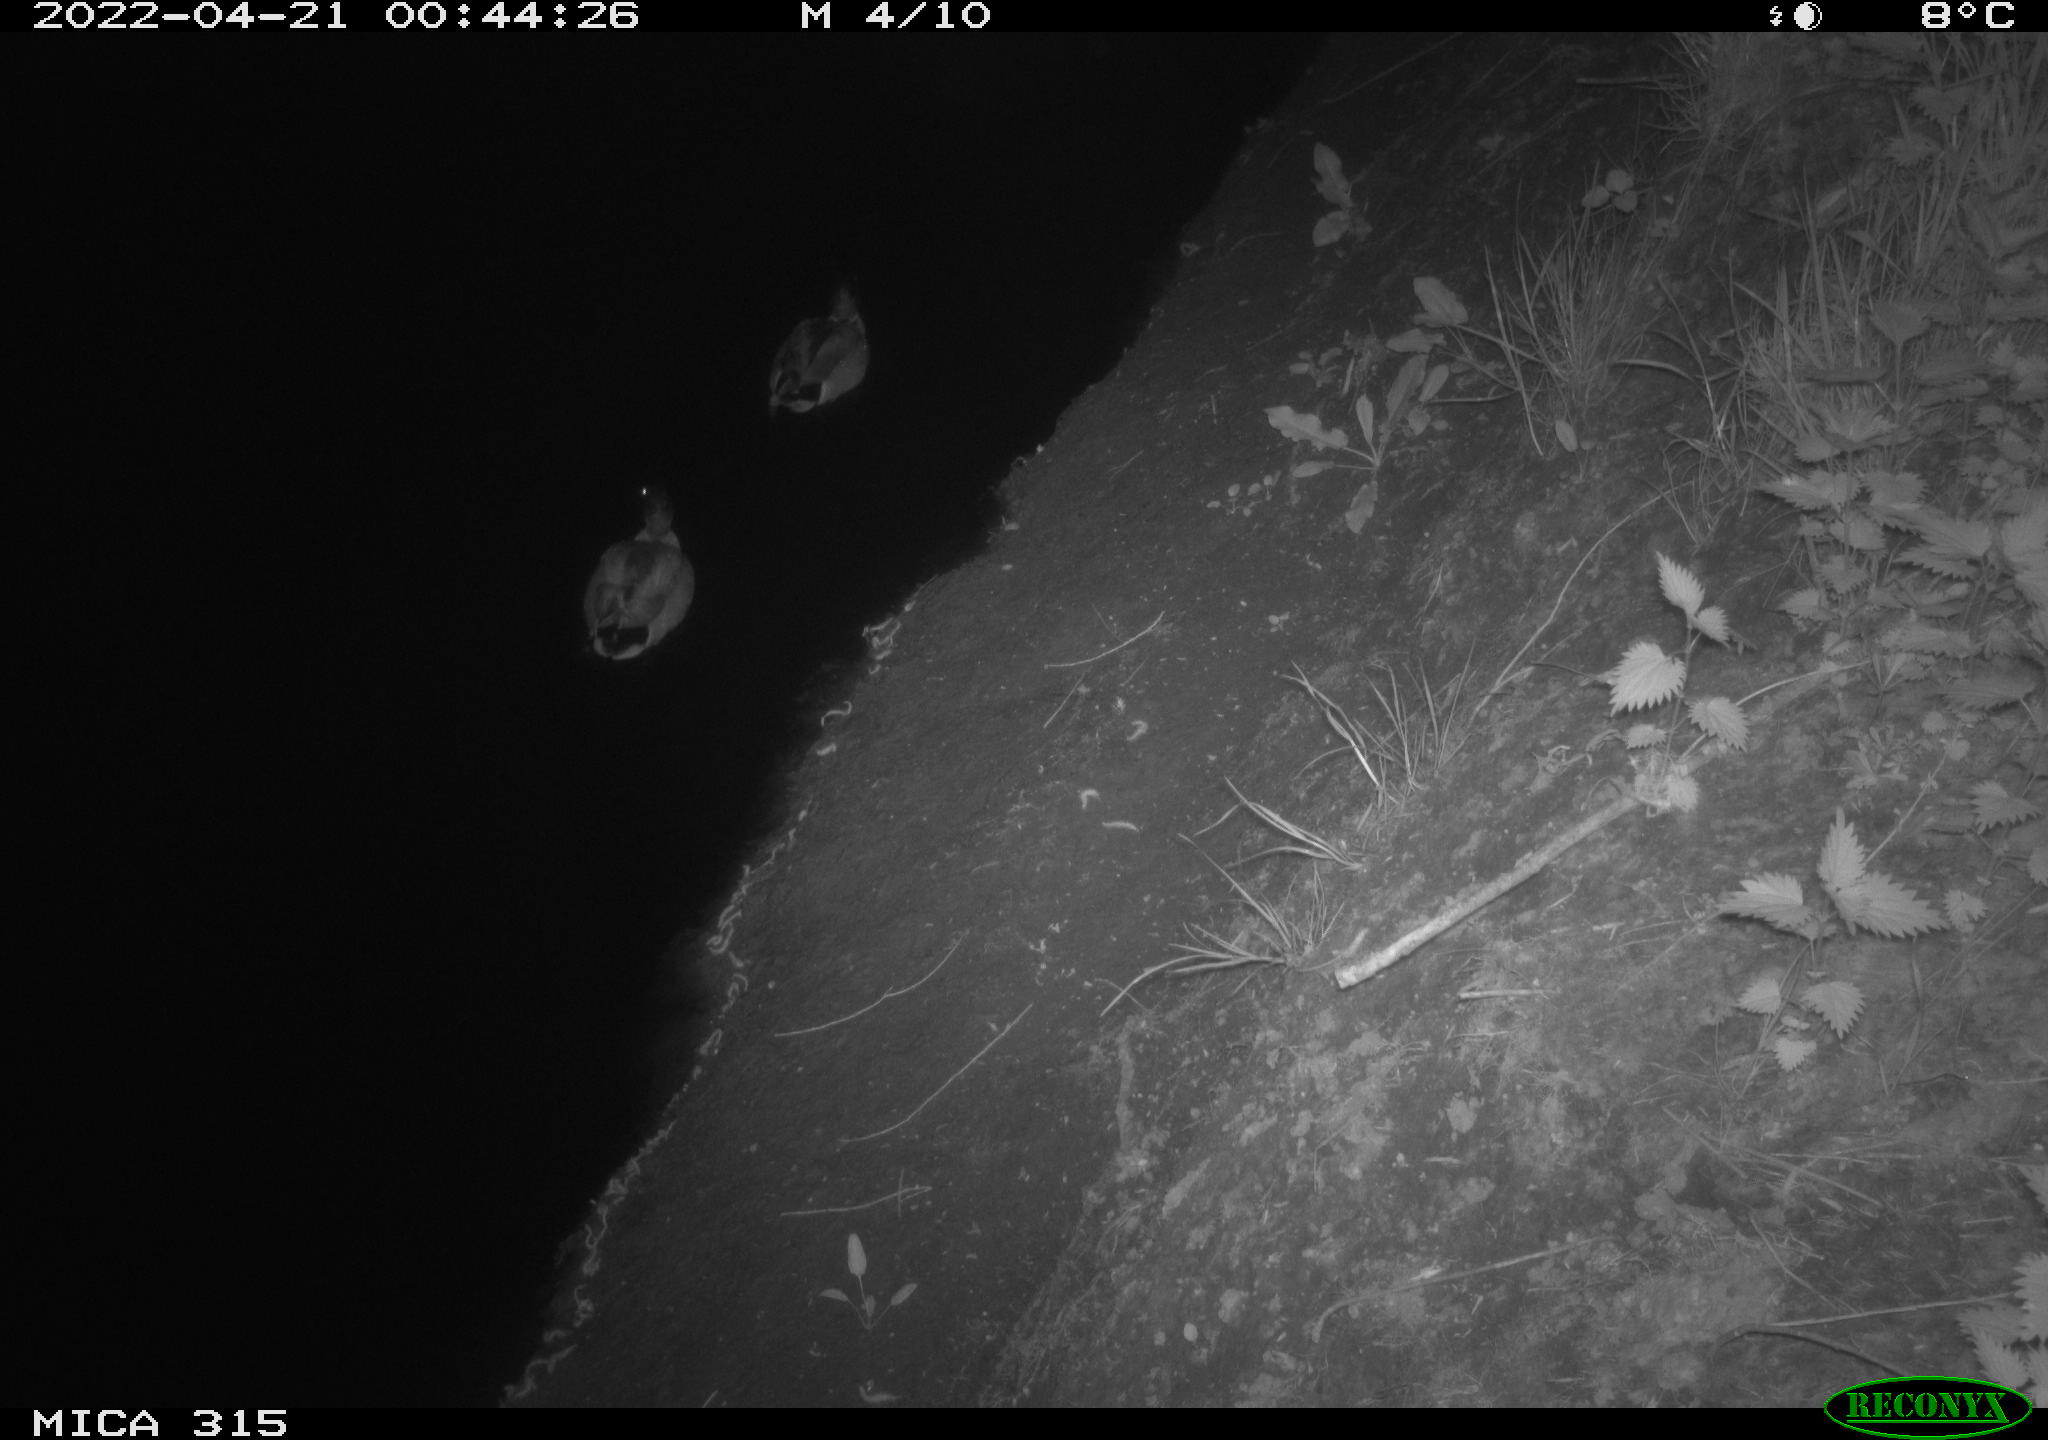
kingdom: Animalia
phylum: Chordata
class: Aves
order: Anseriformes
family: Anatidae
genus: Anas
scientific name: Anas platyrhynchos
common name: Mallard
